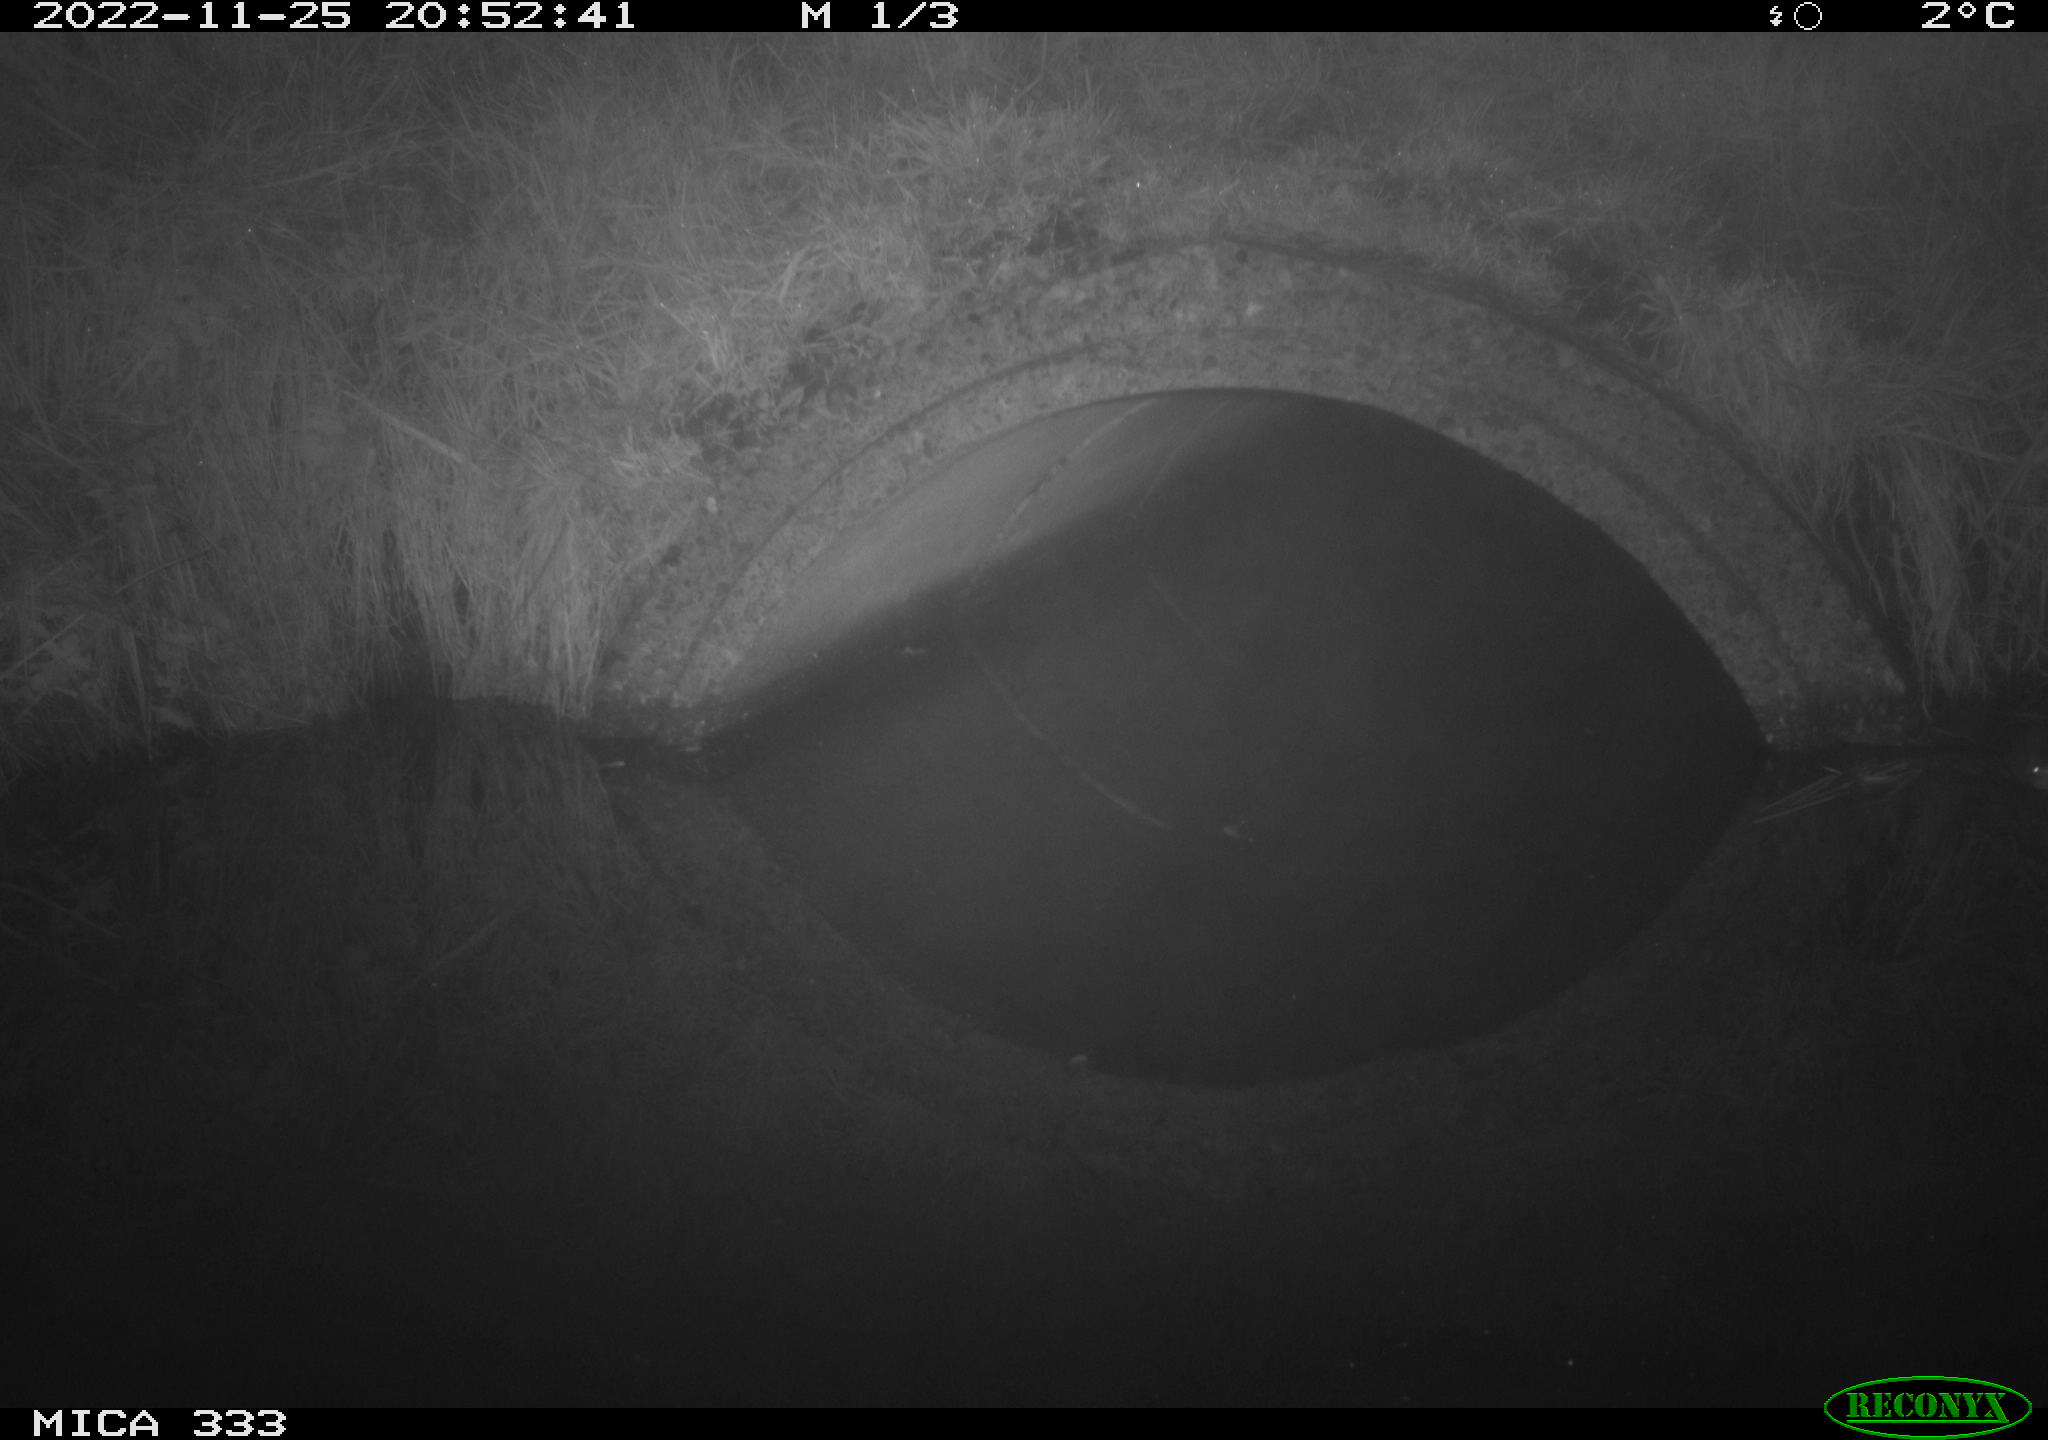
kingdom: Animalia
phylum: Chordata
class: Mammalia
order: Rodentia
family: Muridae
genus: Rattus
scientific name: Rattus norvegicus
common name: Brown rat
